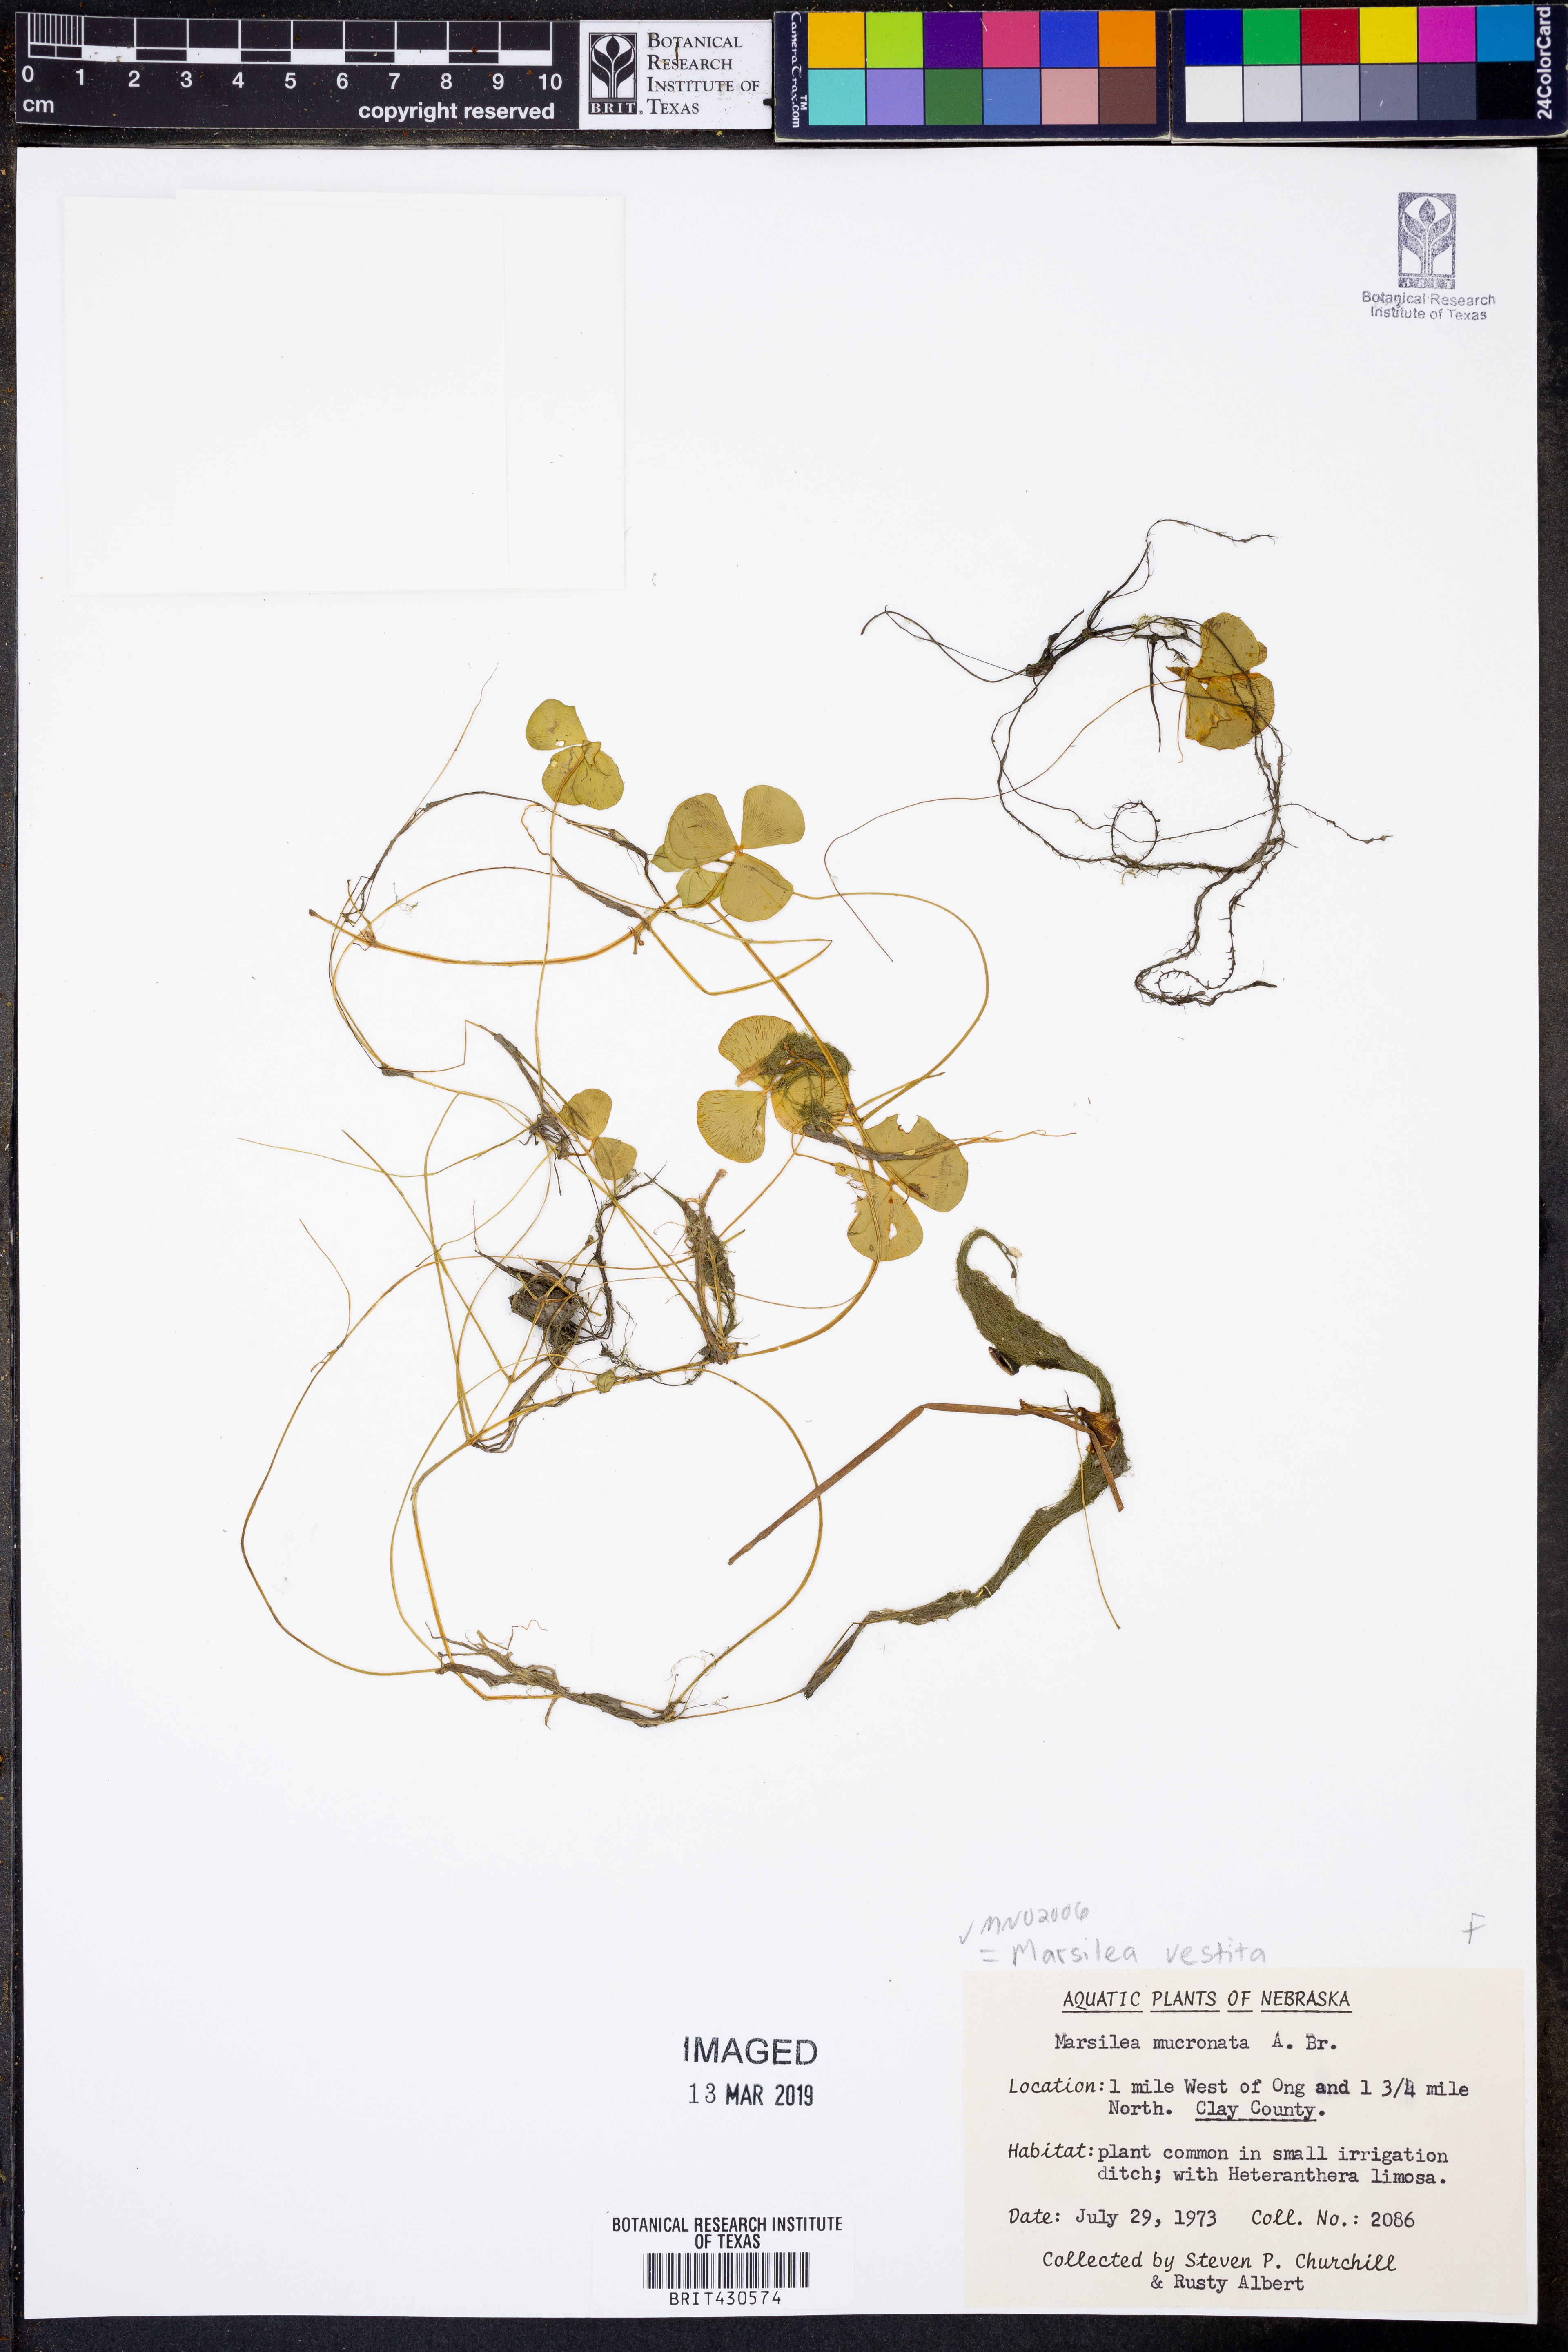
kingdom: Plantae
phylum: Tracheophyta
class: Polypodiopsida
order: Salviniales
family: Marsileaceae
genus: Marsilea
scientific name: Marsilea vestita
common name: Hooked-pepperwort
